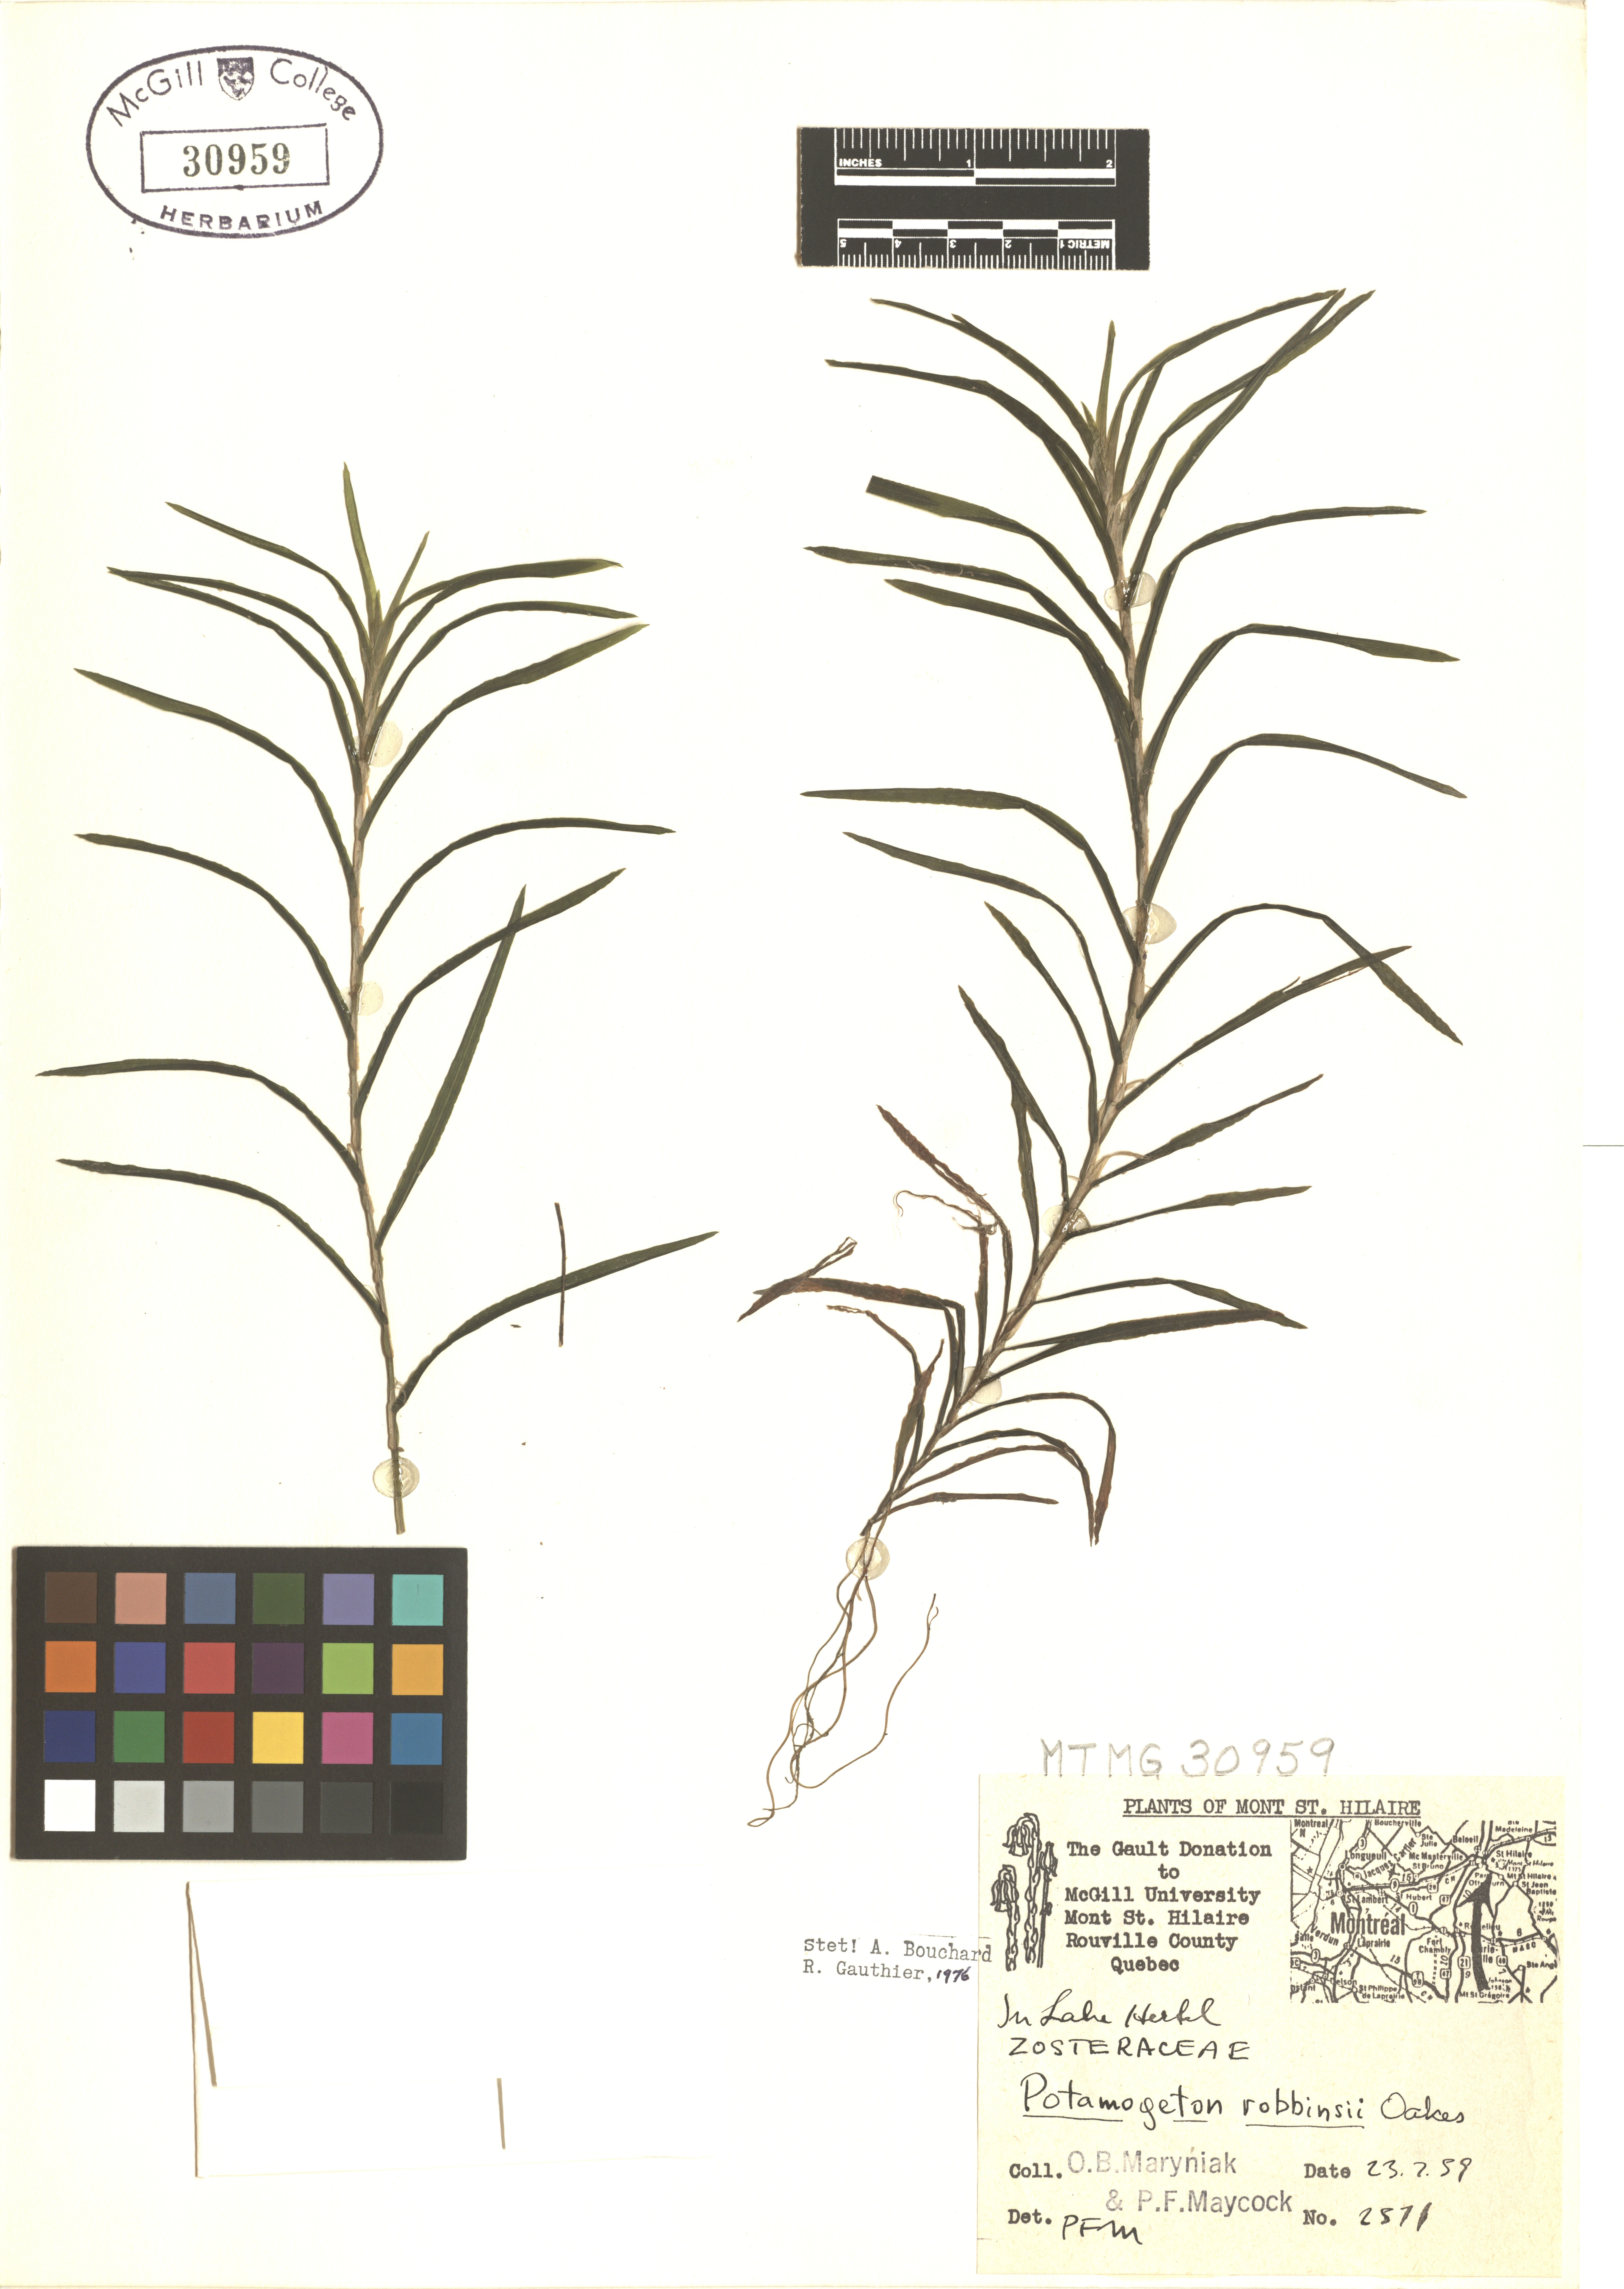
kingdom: Plantae
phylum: Tracheophyta
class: Liliopsida
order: Alismatales
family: Potamogetonaceae
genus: Potamogeton
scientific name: Potamogeton robbinsii
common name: Fern pondweed
